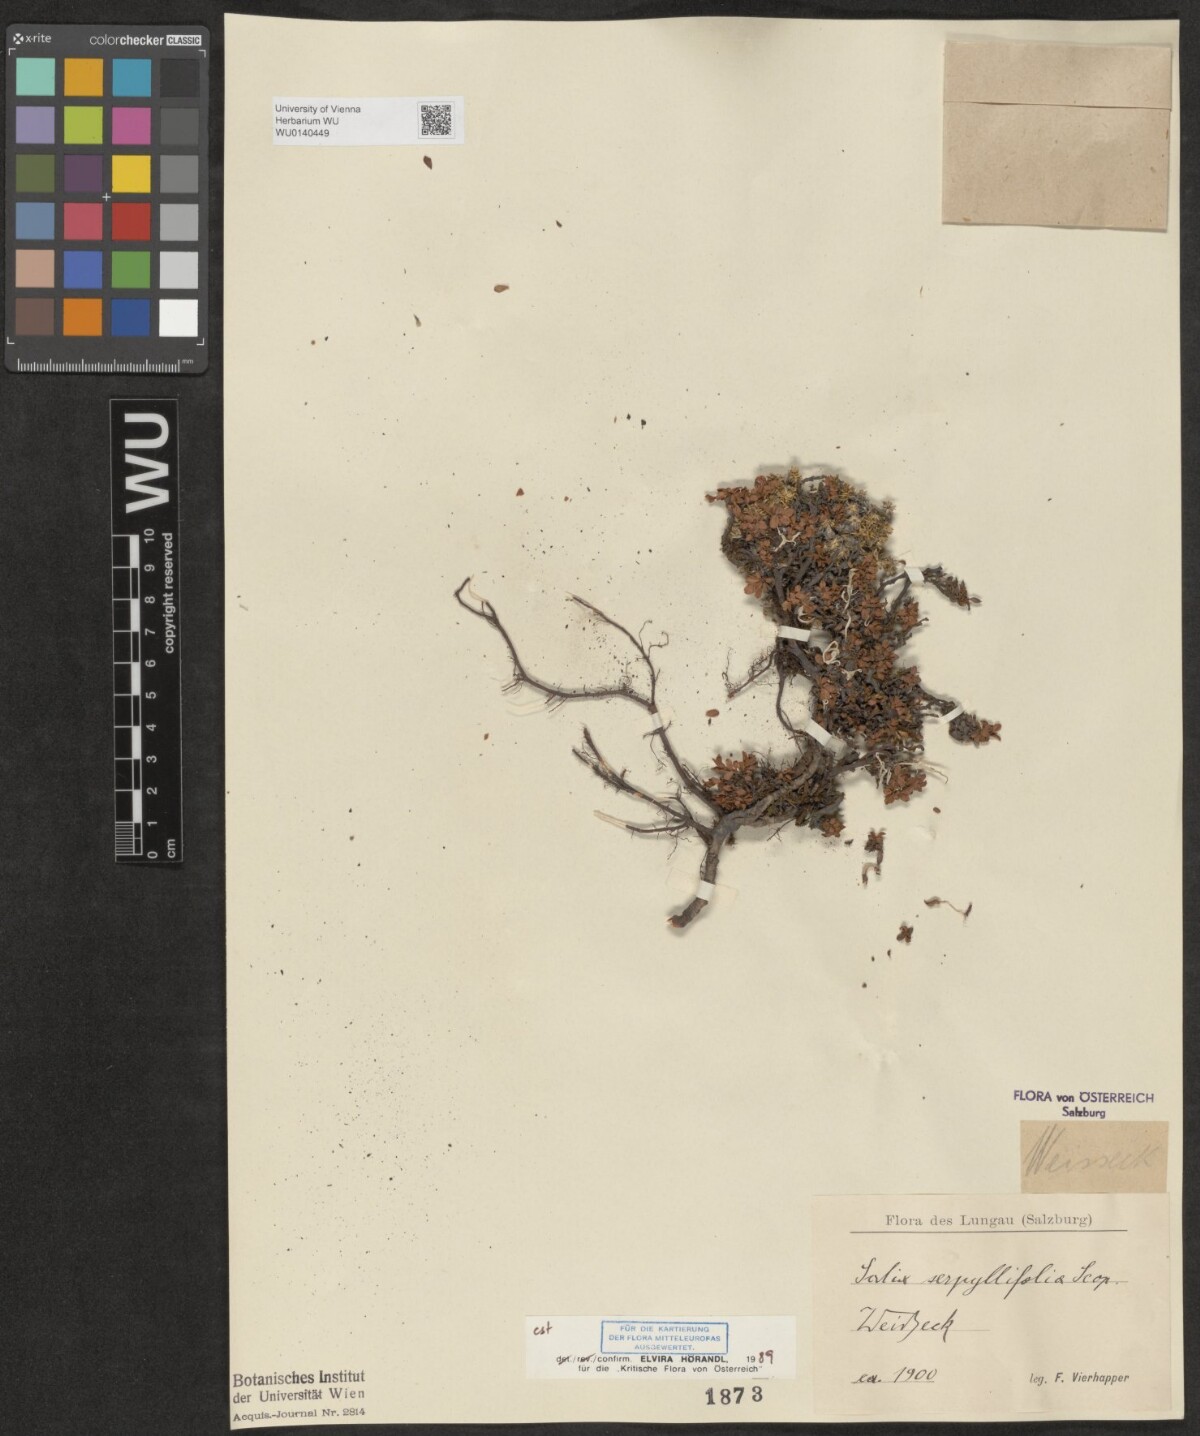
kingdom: Plantae
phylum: Tracheophyta
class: Magnoliopsida
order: Malpighiales
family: Salicaceae
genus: Salix
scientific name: Salix serpillifolia
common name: Thyme-leaf willow
